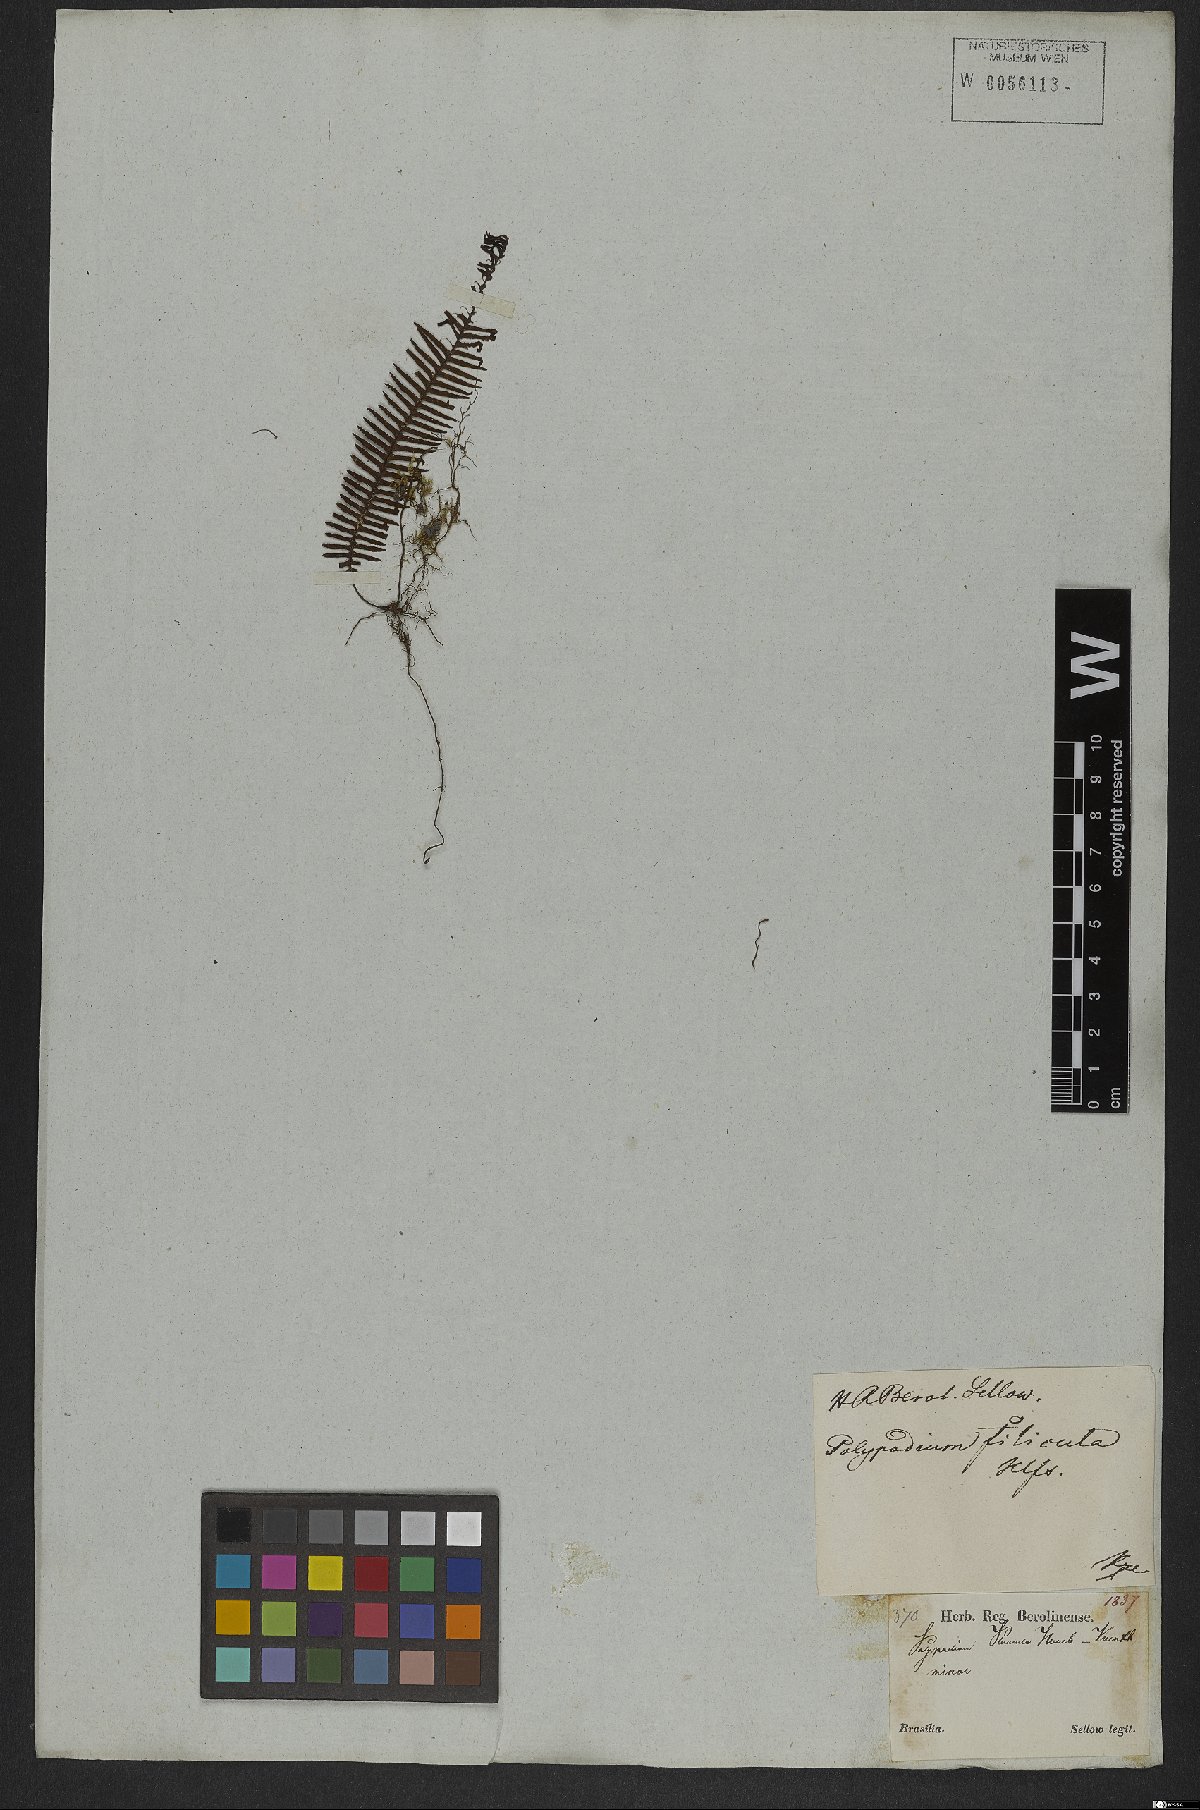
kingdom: Plantae
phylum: Tracheophyta
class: Polypodiopsida
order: Polypodiales
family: Polypodiaceae
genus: Pecluma
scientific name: Pecluma plumula
